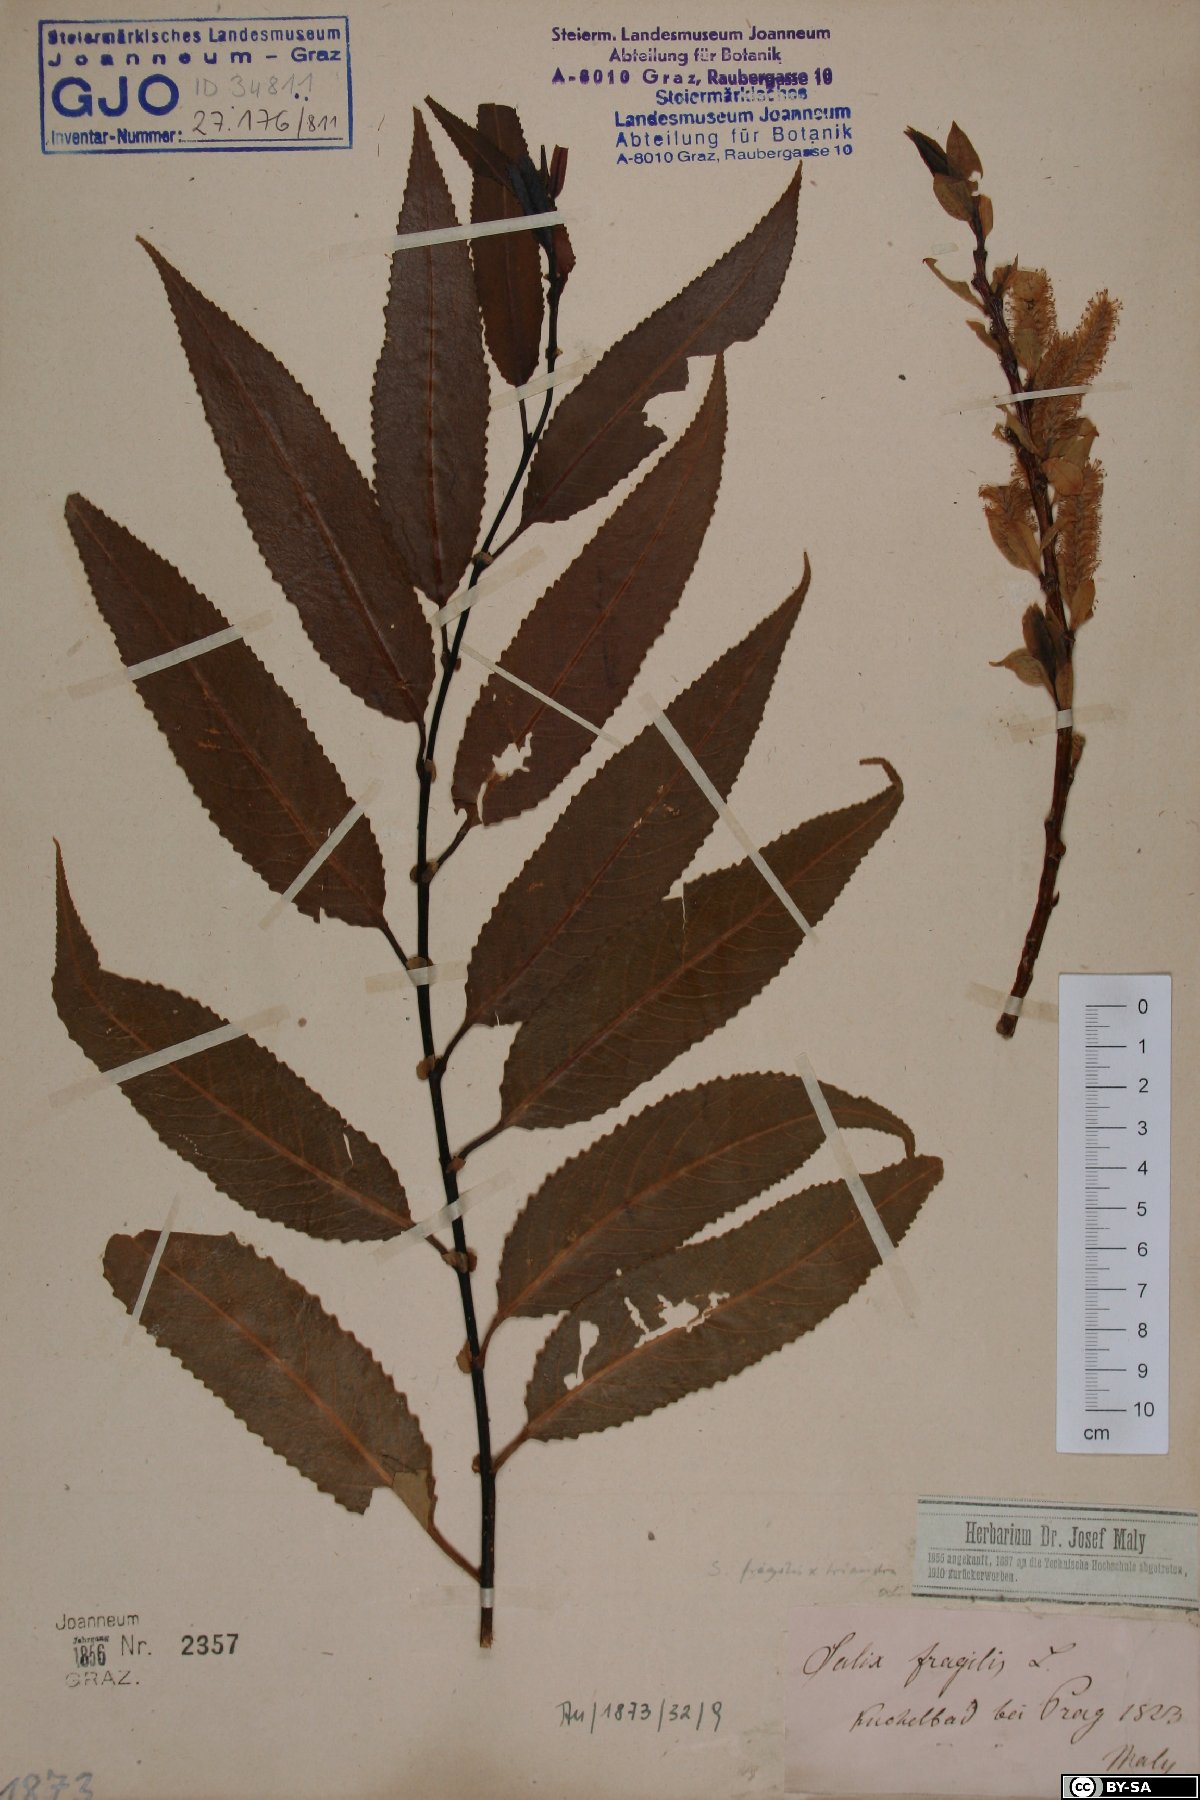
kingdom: Plantae
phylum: Tracheophyta
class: Magnoliopsida
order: Malpighiales
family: Salicaceae
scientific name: Salicaceae
